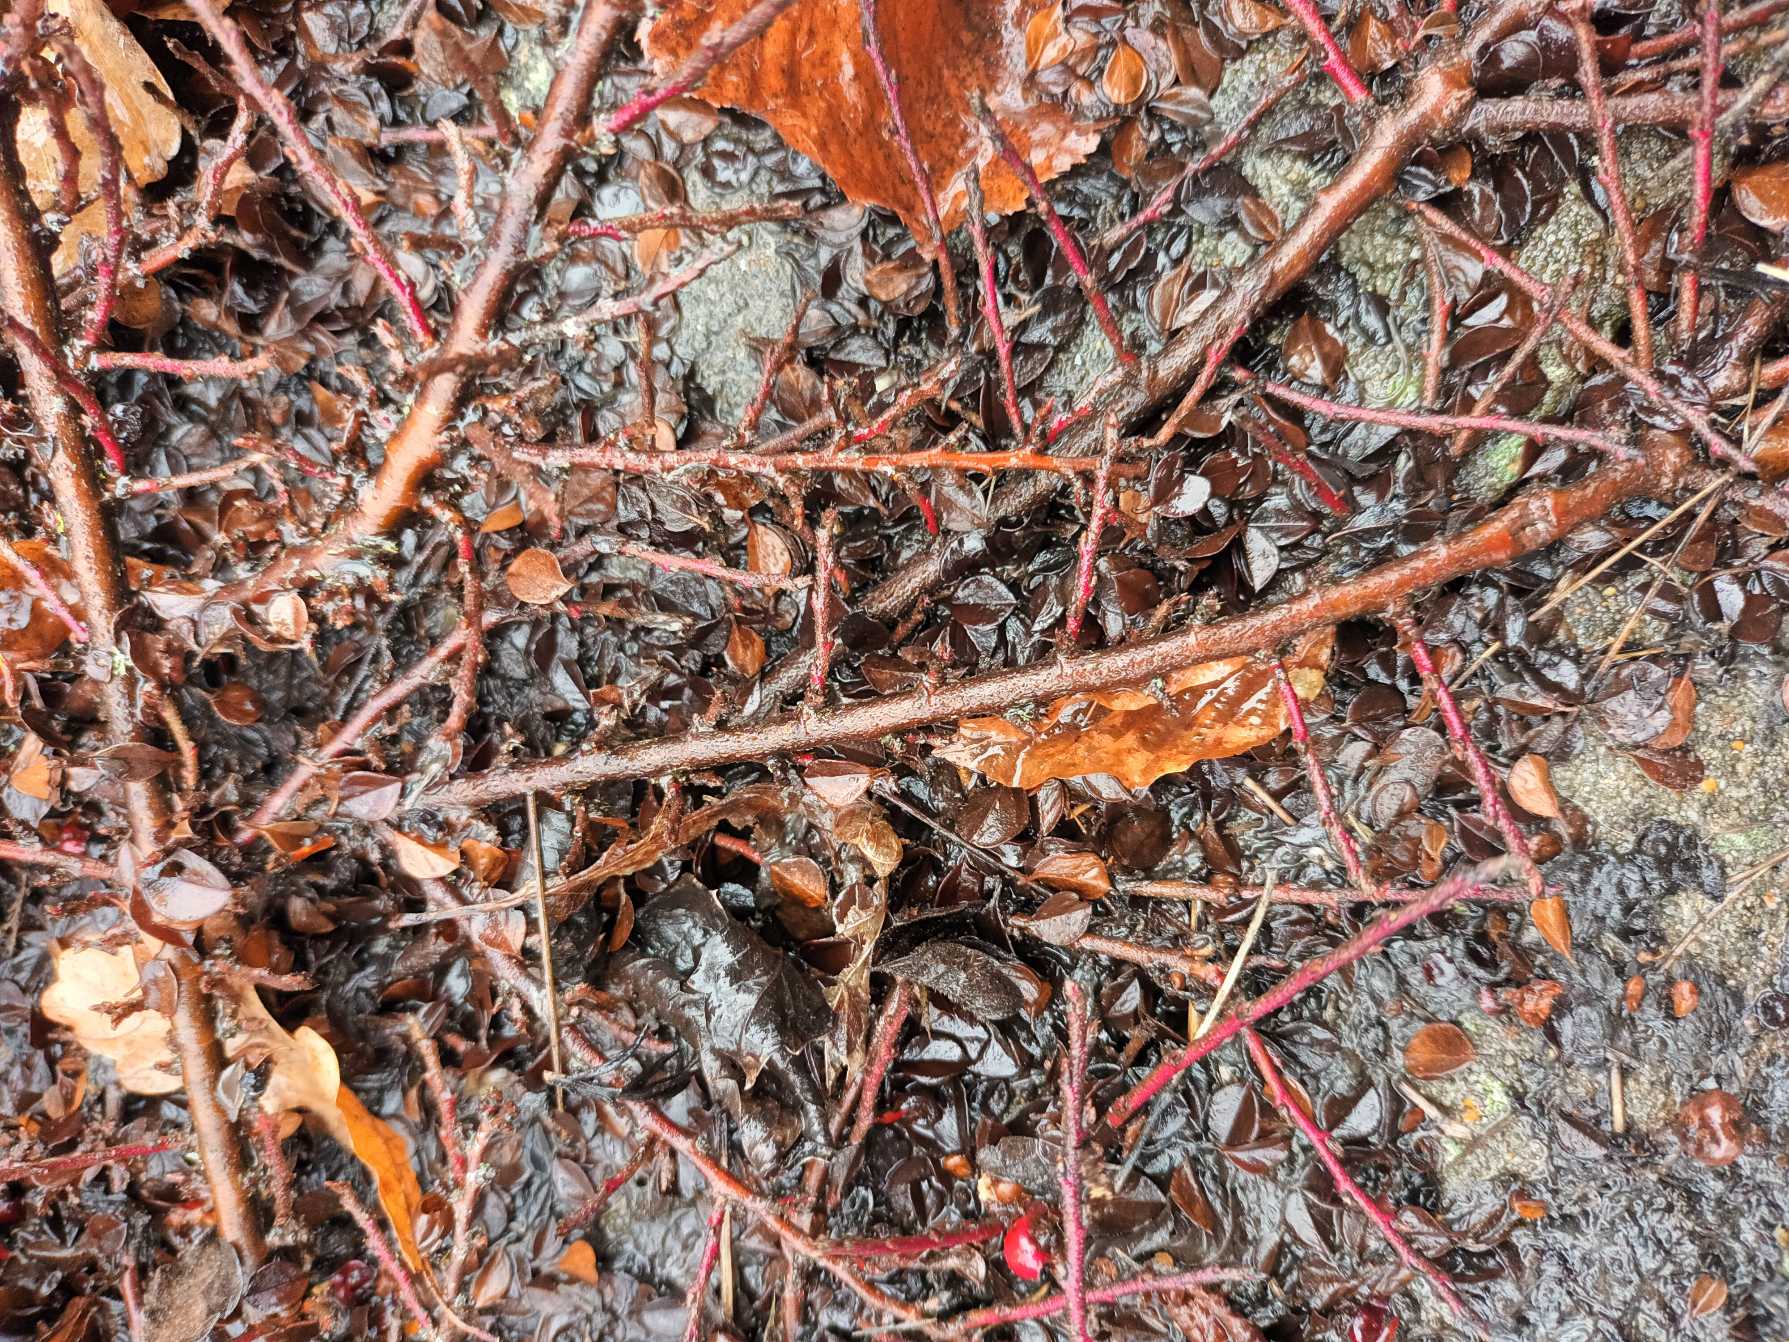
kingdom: Plantae
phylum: Tracheophyta
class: Magnoliopsida
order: Rosales
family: Rosaceae
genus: Cotoneaster
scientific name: Cotoneaster horizontalis
